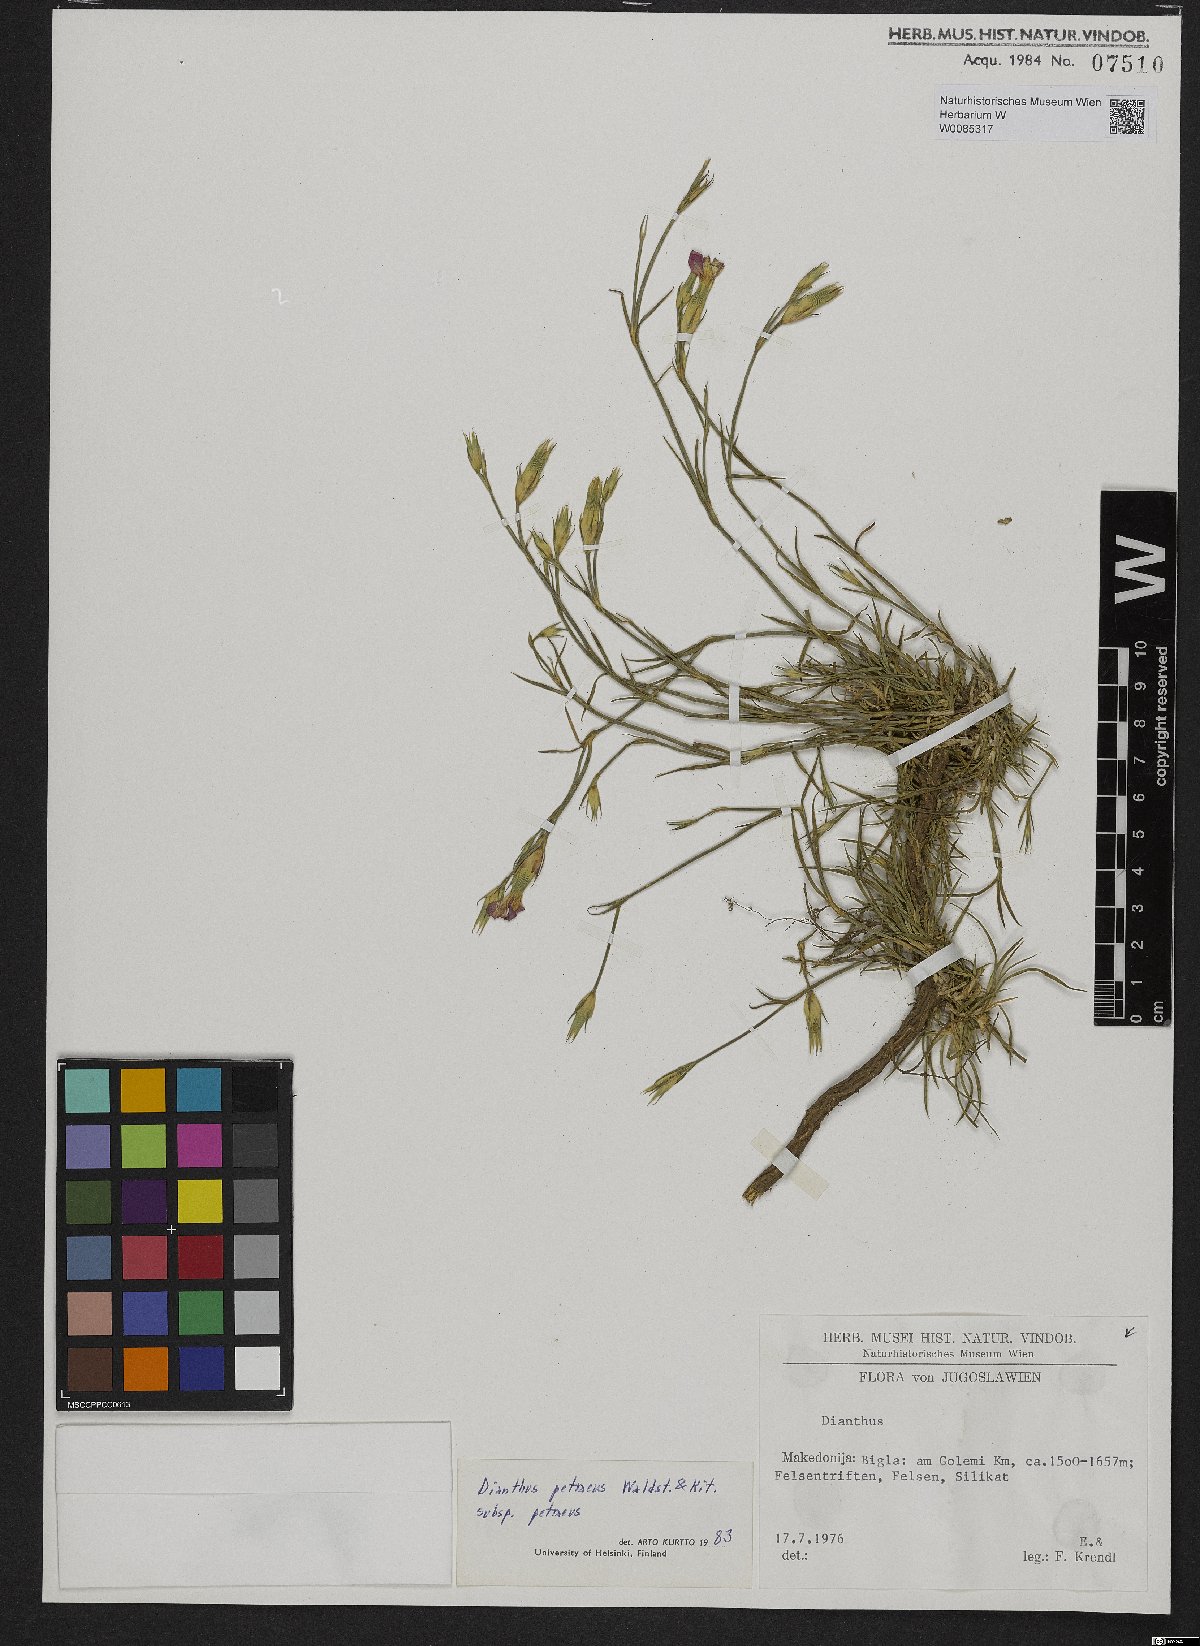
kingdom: Plantae
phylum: Tracheophyta
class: Magnoliopsida
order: Caryophyllales
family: Caryophyllaceae
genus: Dianthus
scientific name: Dianthus petraeus
